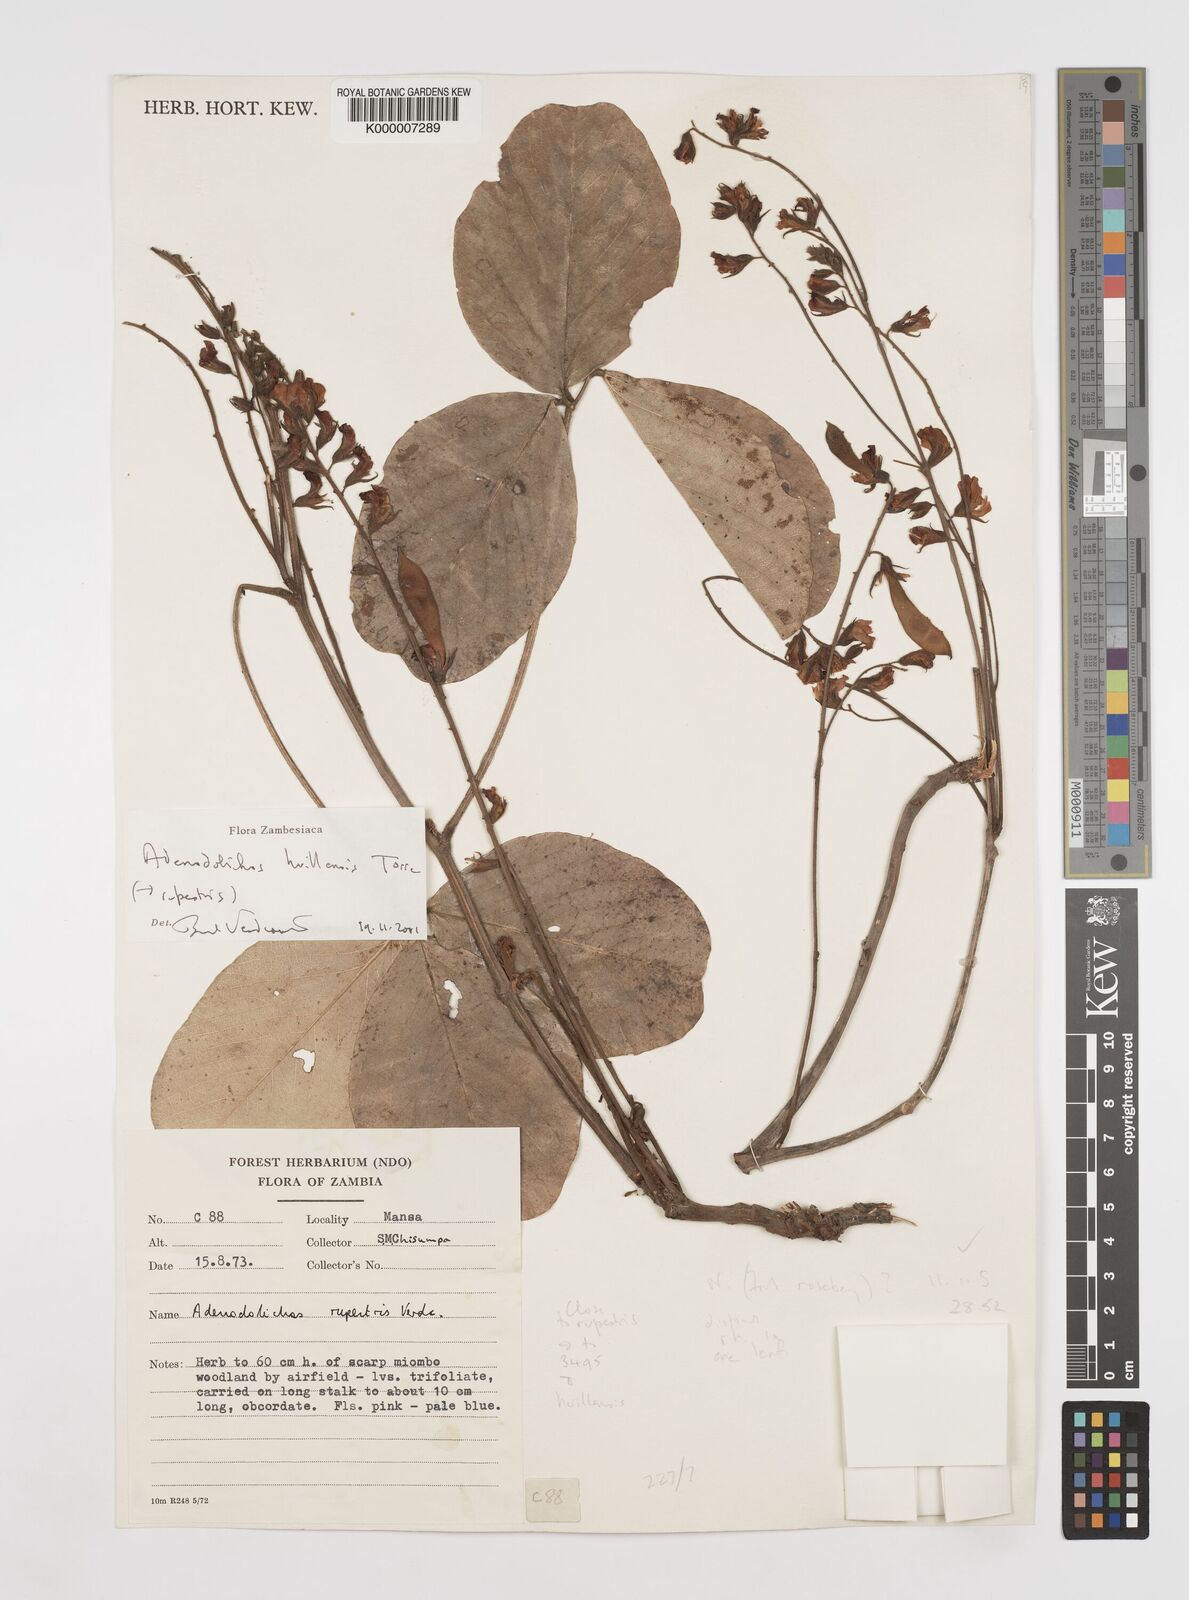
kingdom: Plantae
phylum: Tracheophyta
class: Magnoliopsida
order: Fabales
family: Fabaceae
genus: Adenodolichos
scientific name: Adenodolichos huillensis
